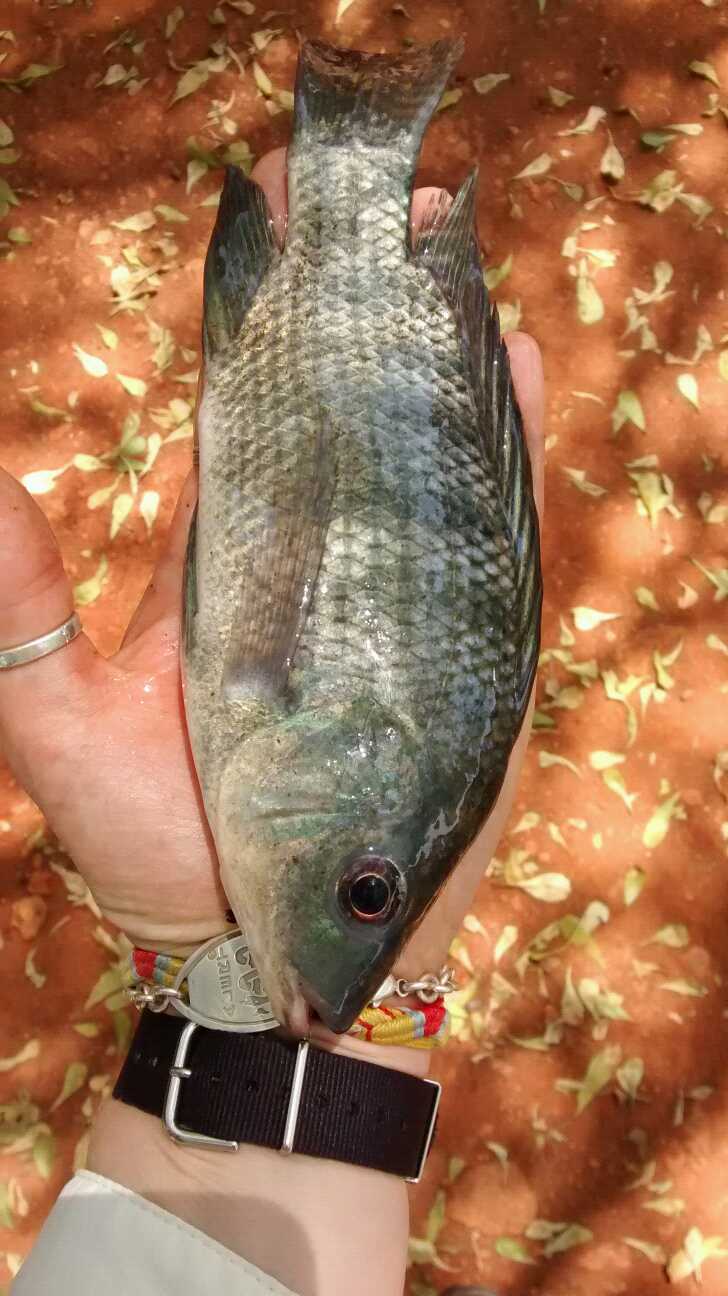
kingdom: Animalia
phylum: Chordata
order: Perciformes
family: Cichlidae
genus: Oreochromis
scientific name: Oreochromis niloticus
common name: Nile tilapia
